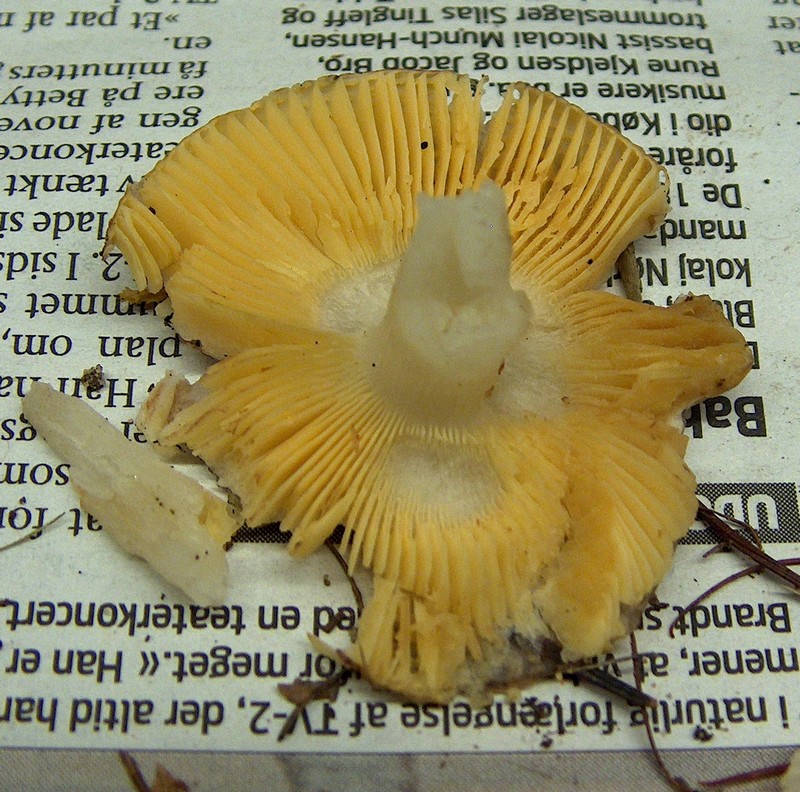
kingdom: Fungi
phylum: Basidiomycota
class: Agaricomycetes
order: Russulales
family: Russulaceae
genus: Russula
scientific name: Russula nauseosa
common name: spinkel skørhat
